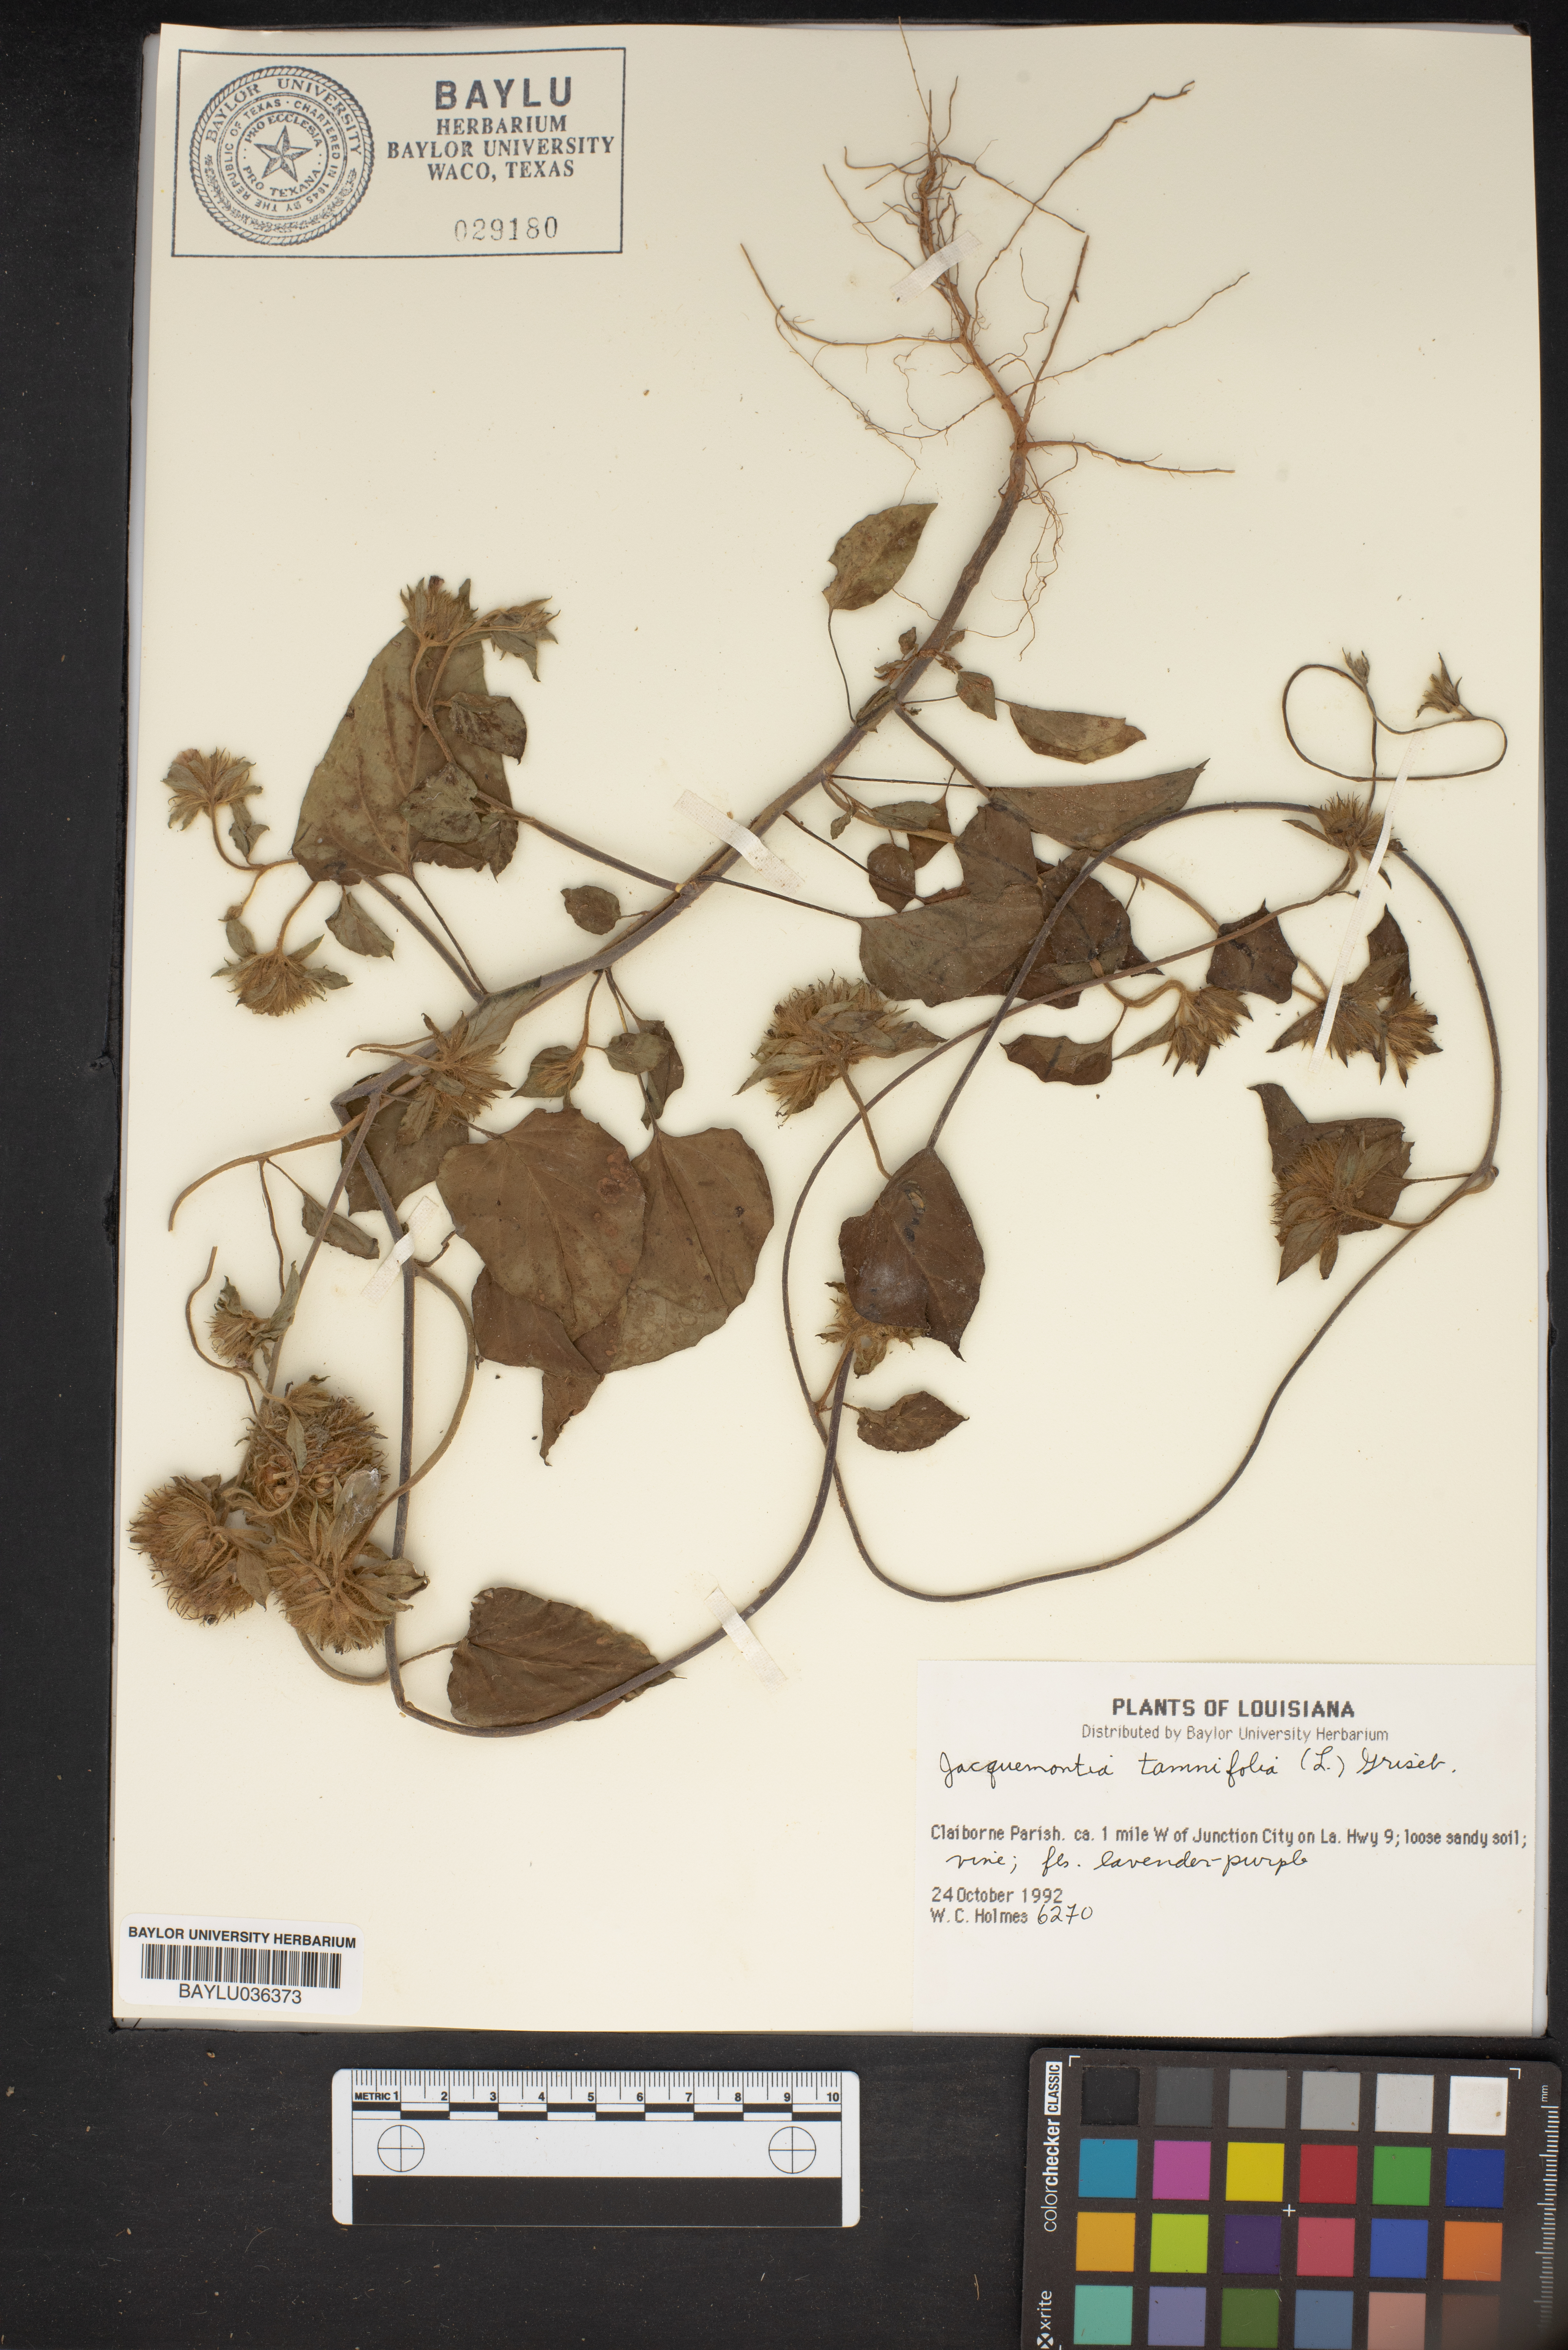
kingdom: Plantae
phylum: Tracheophyta
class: Magnoliopsida
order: Solanales
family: Convolvulaceae
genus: Jacquemontia
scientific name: Jacquemontia tamnifolia
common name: Hairy clustervine
